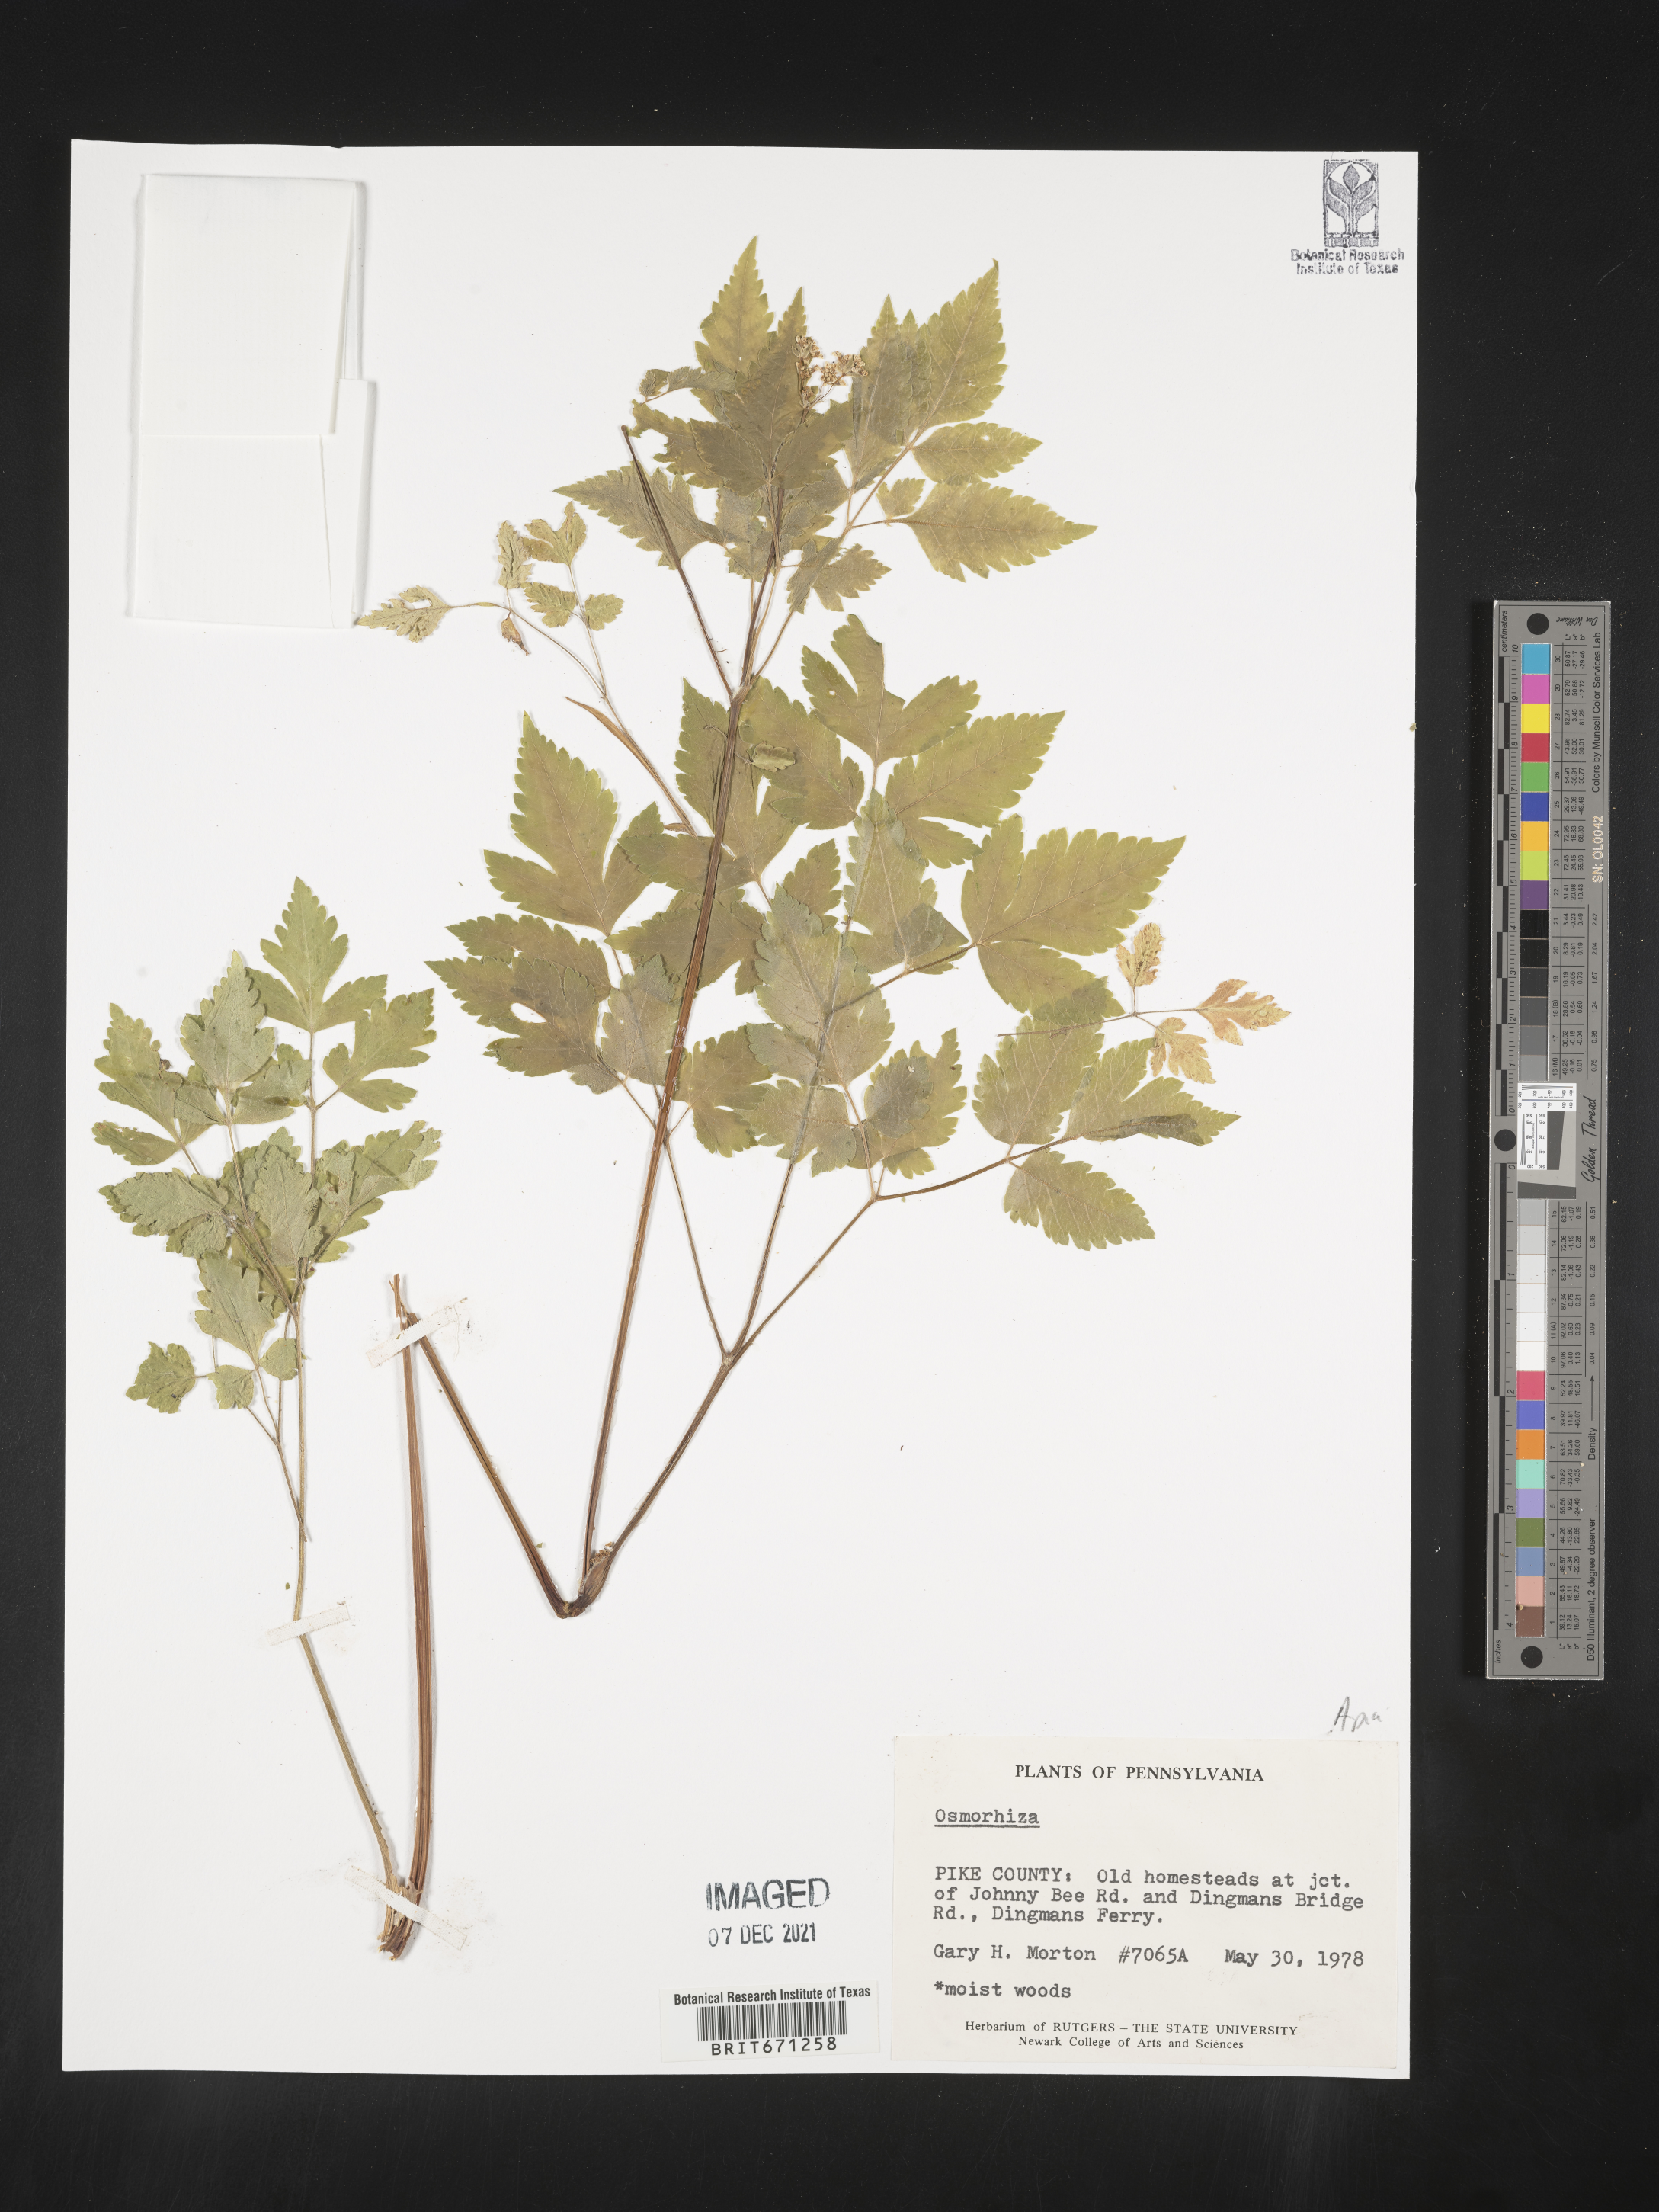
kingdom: Plantae
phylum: Tracheophyta
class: Magnoliopsida
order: Apiales
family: Apiaceae
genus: Osmorhiza
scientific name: Osmorhiza
